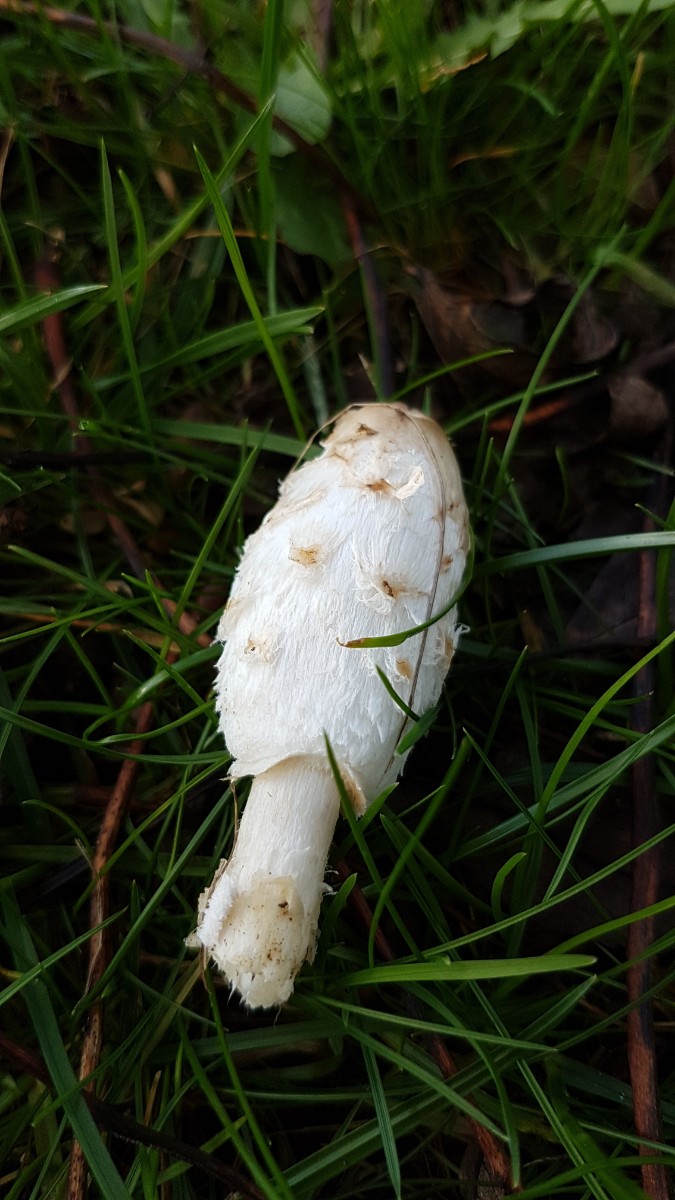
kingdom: Fungi
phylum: Basidiomycota
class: Agaricomycetes
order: Agaricales
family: Agaricaceae
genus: Coprinus
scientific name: Coprinus comatus
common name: stor parykhat
